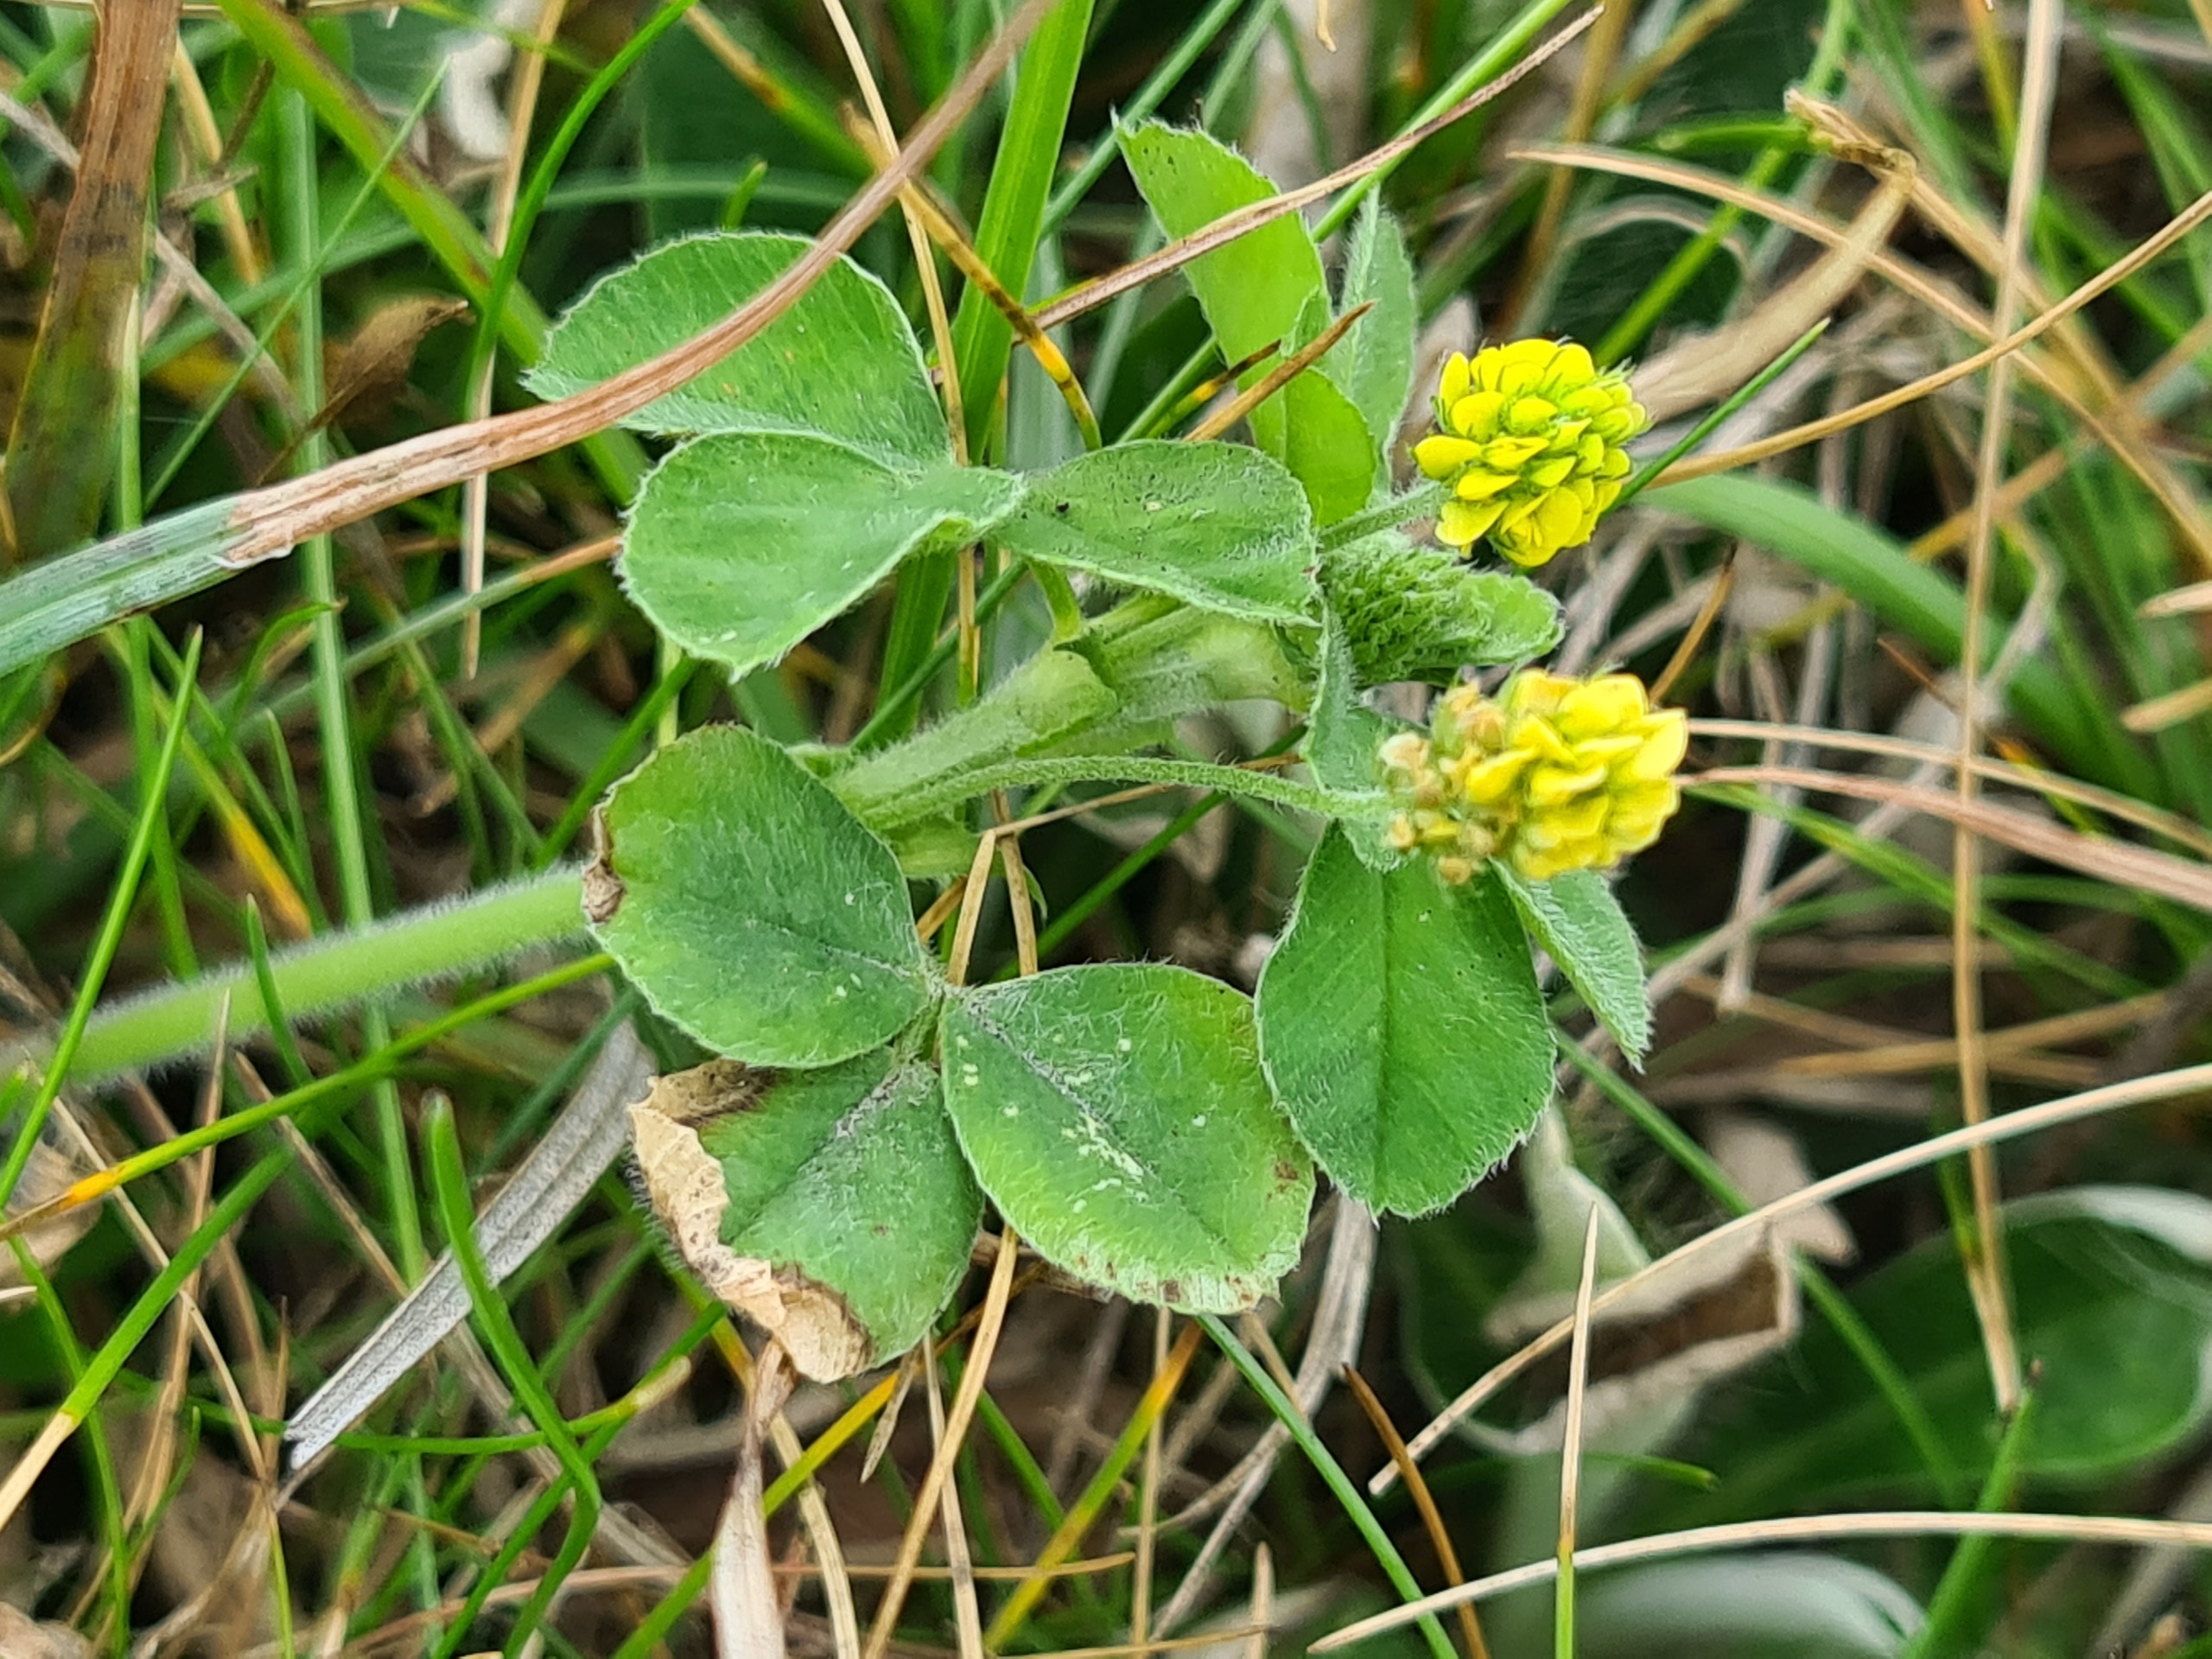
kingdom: Plantae
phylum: Tracheophyta
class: Magnoliopsida
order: Fabales
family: Fabaceae
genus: Medicago
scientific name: Medicago lupulina
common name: Humle-sneglebælg
